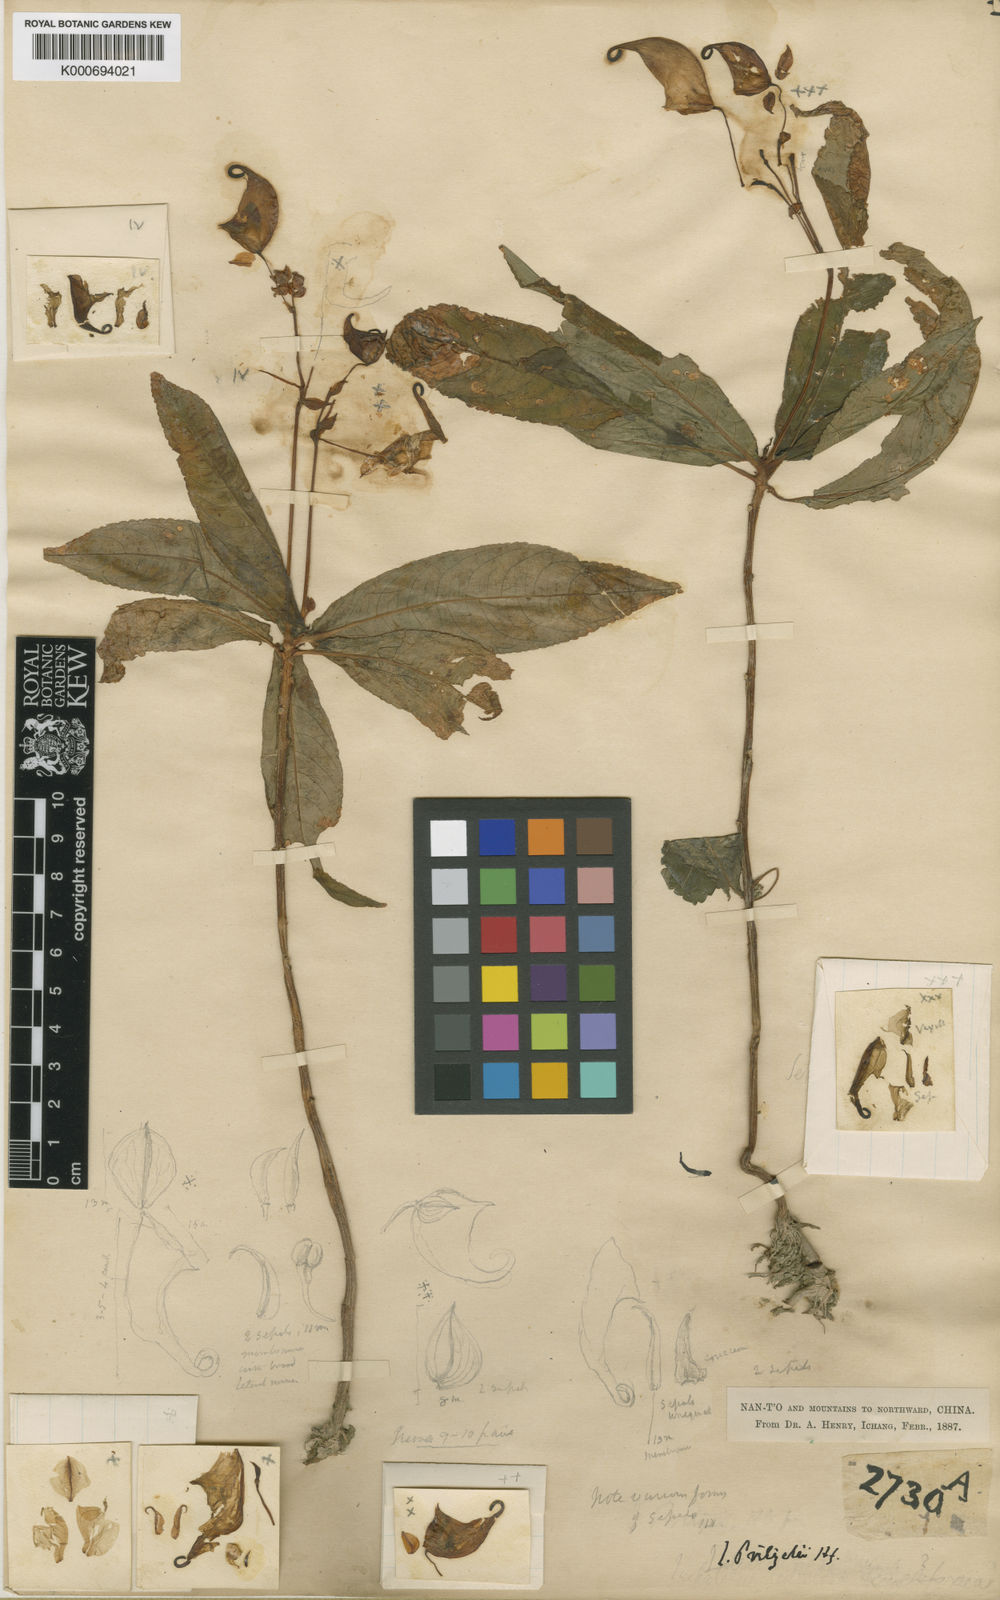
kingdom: Plantae
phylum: Tracheophyta
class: Magnoliopsida
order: Ericales
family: Balsaminaceae
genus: Impatiens
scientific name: Impatiens pritzelii
